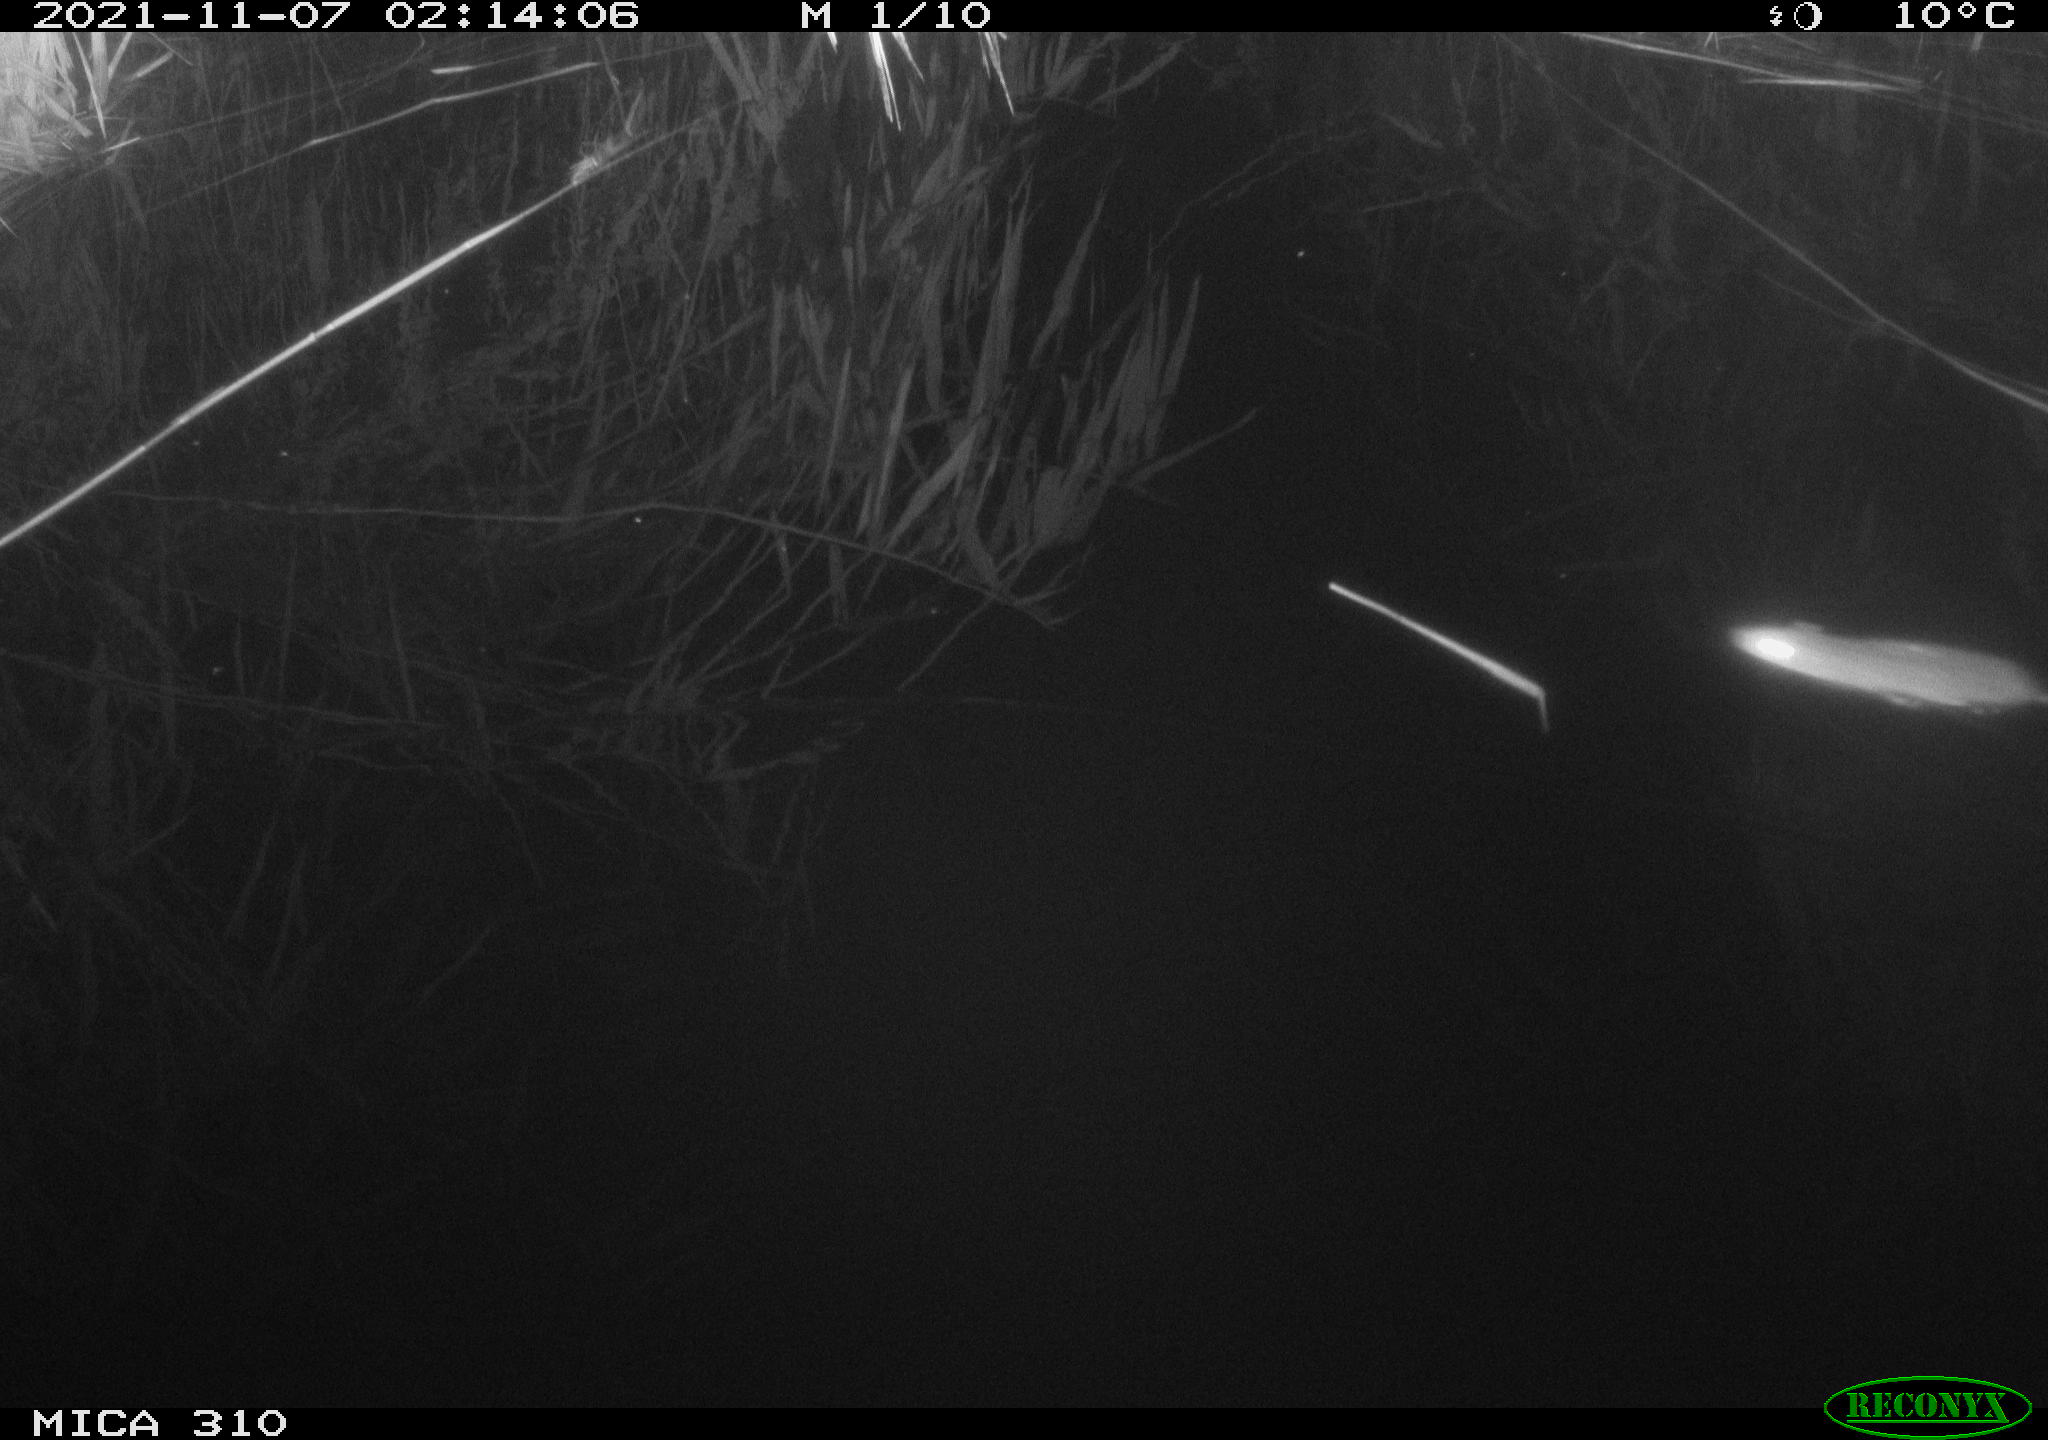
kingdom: Animalia
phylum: Chordata
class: Mammalia
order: Rodentia
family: Muridae
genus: Rattus
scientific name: Rattus norvegicus
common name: Brown rat
